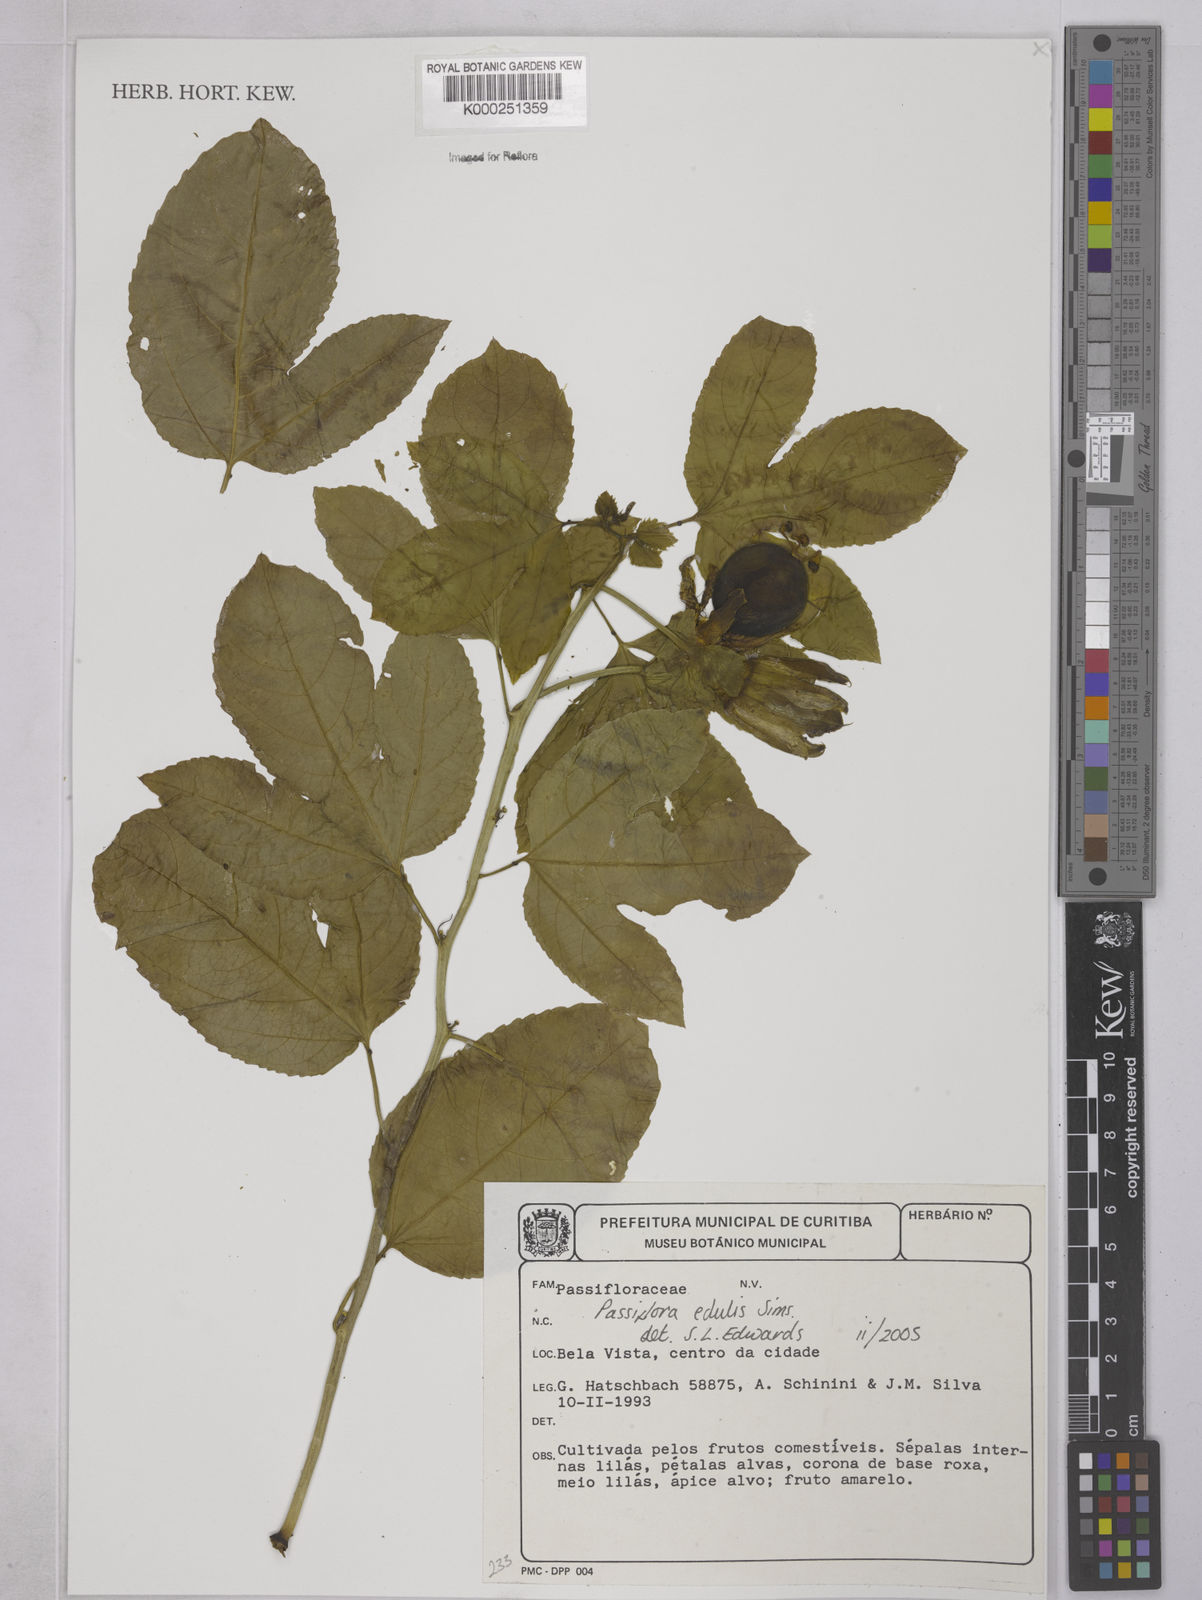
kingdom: Plantae
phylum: Tracheophyta
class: Magnoliopsida
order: Malpighiales
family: Passifloraceae
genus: Passiflora
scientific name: Passiflora cincinnata
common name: Crato passionvine
